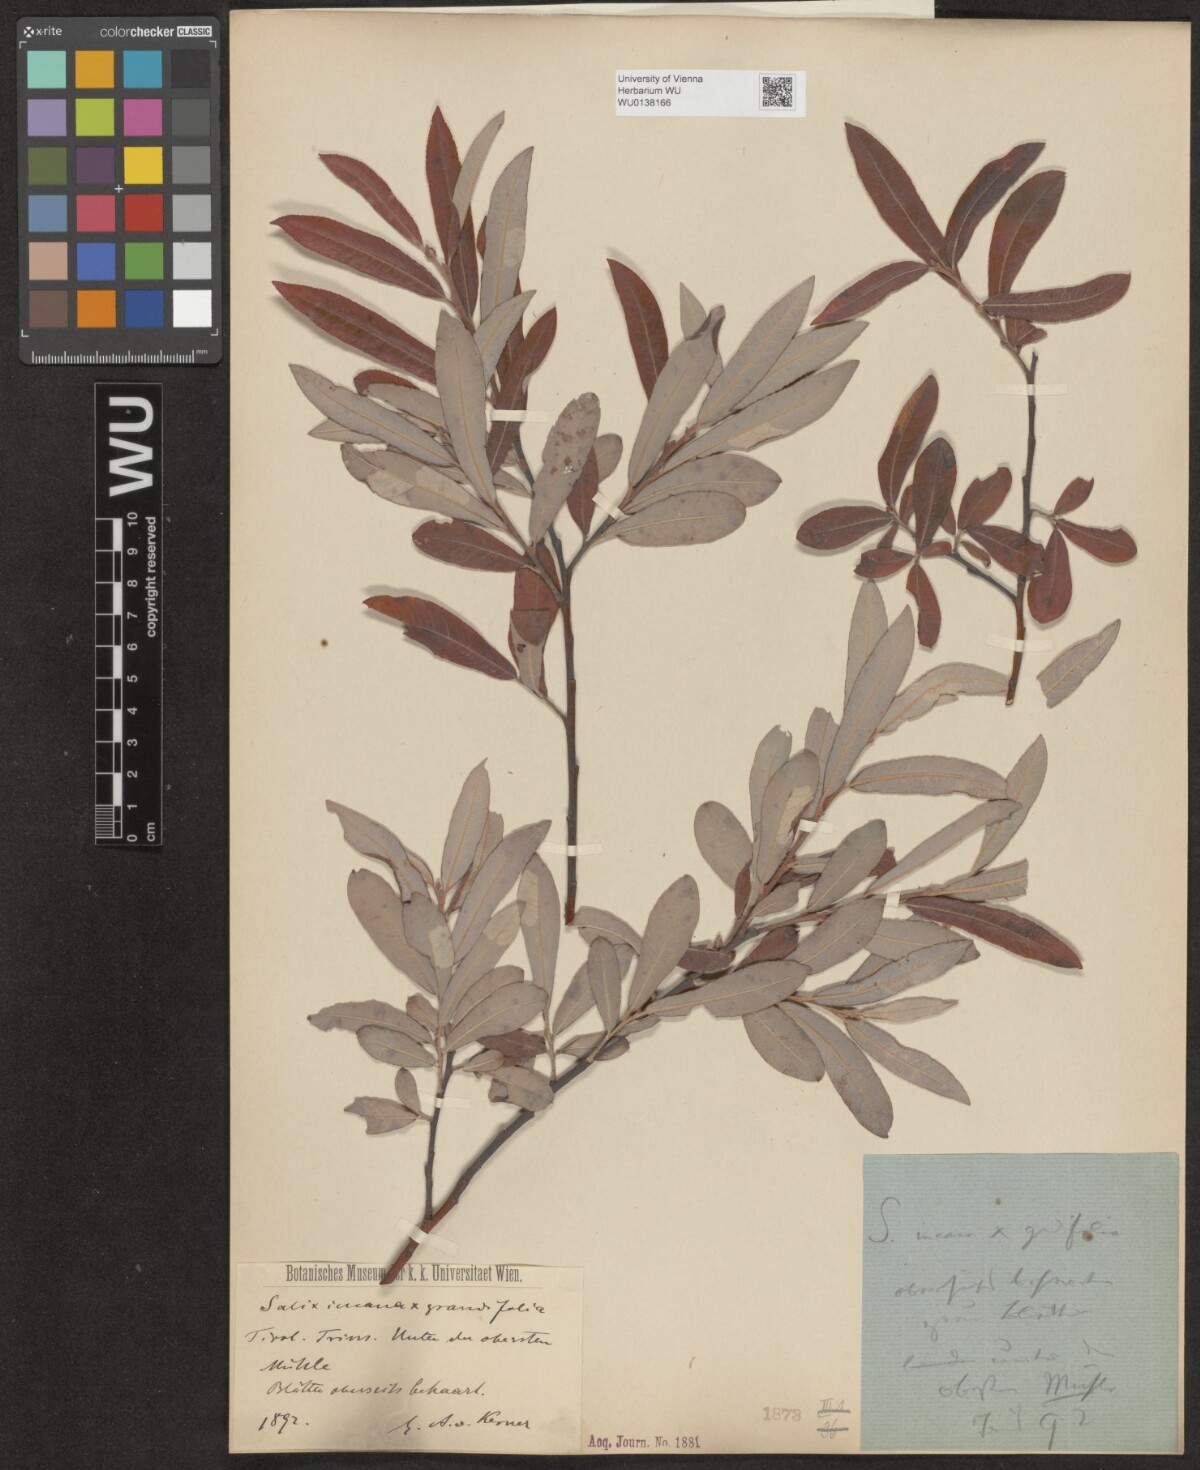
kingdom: Plantae
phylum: Tracheophyta
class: Magnoliopsida
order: Malpighiales
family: Salicaceae
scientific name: Salicaceae
